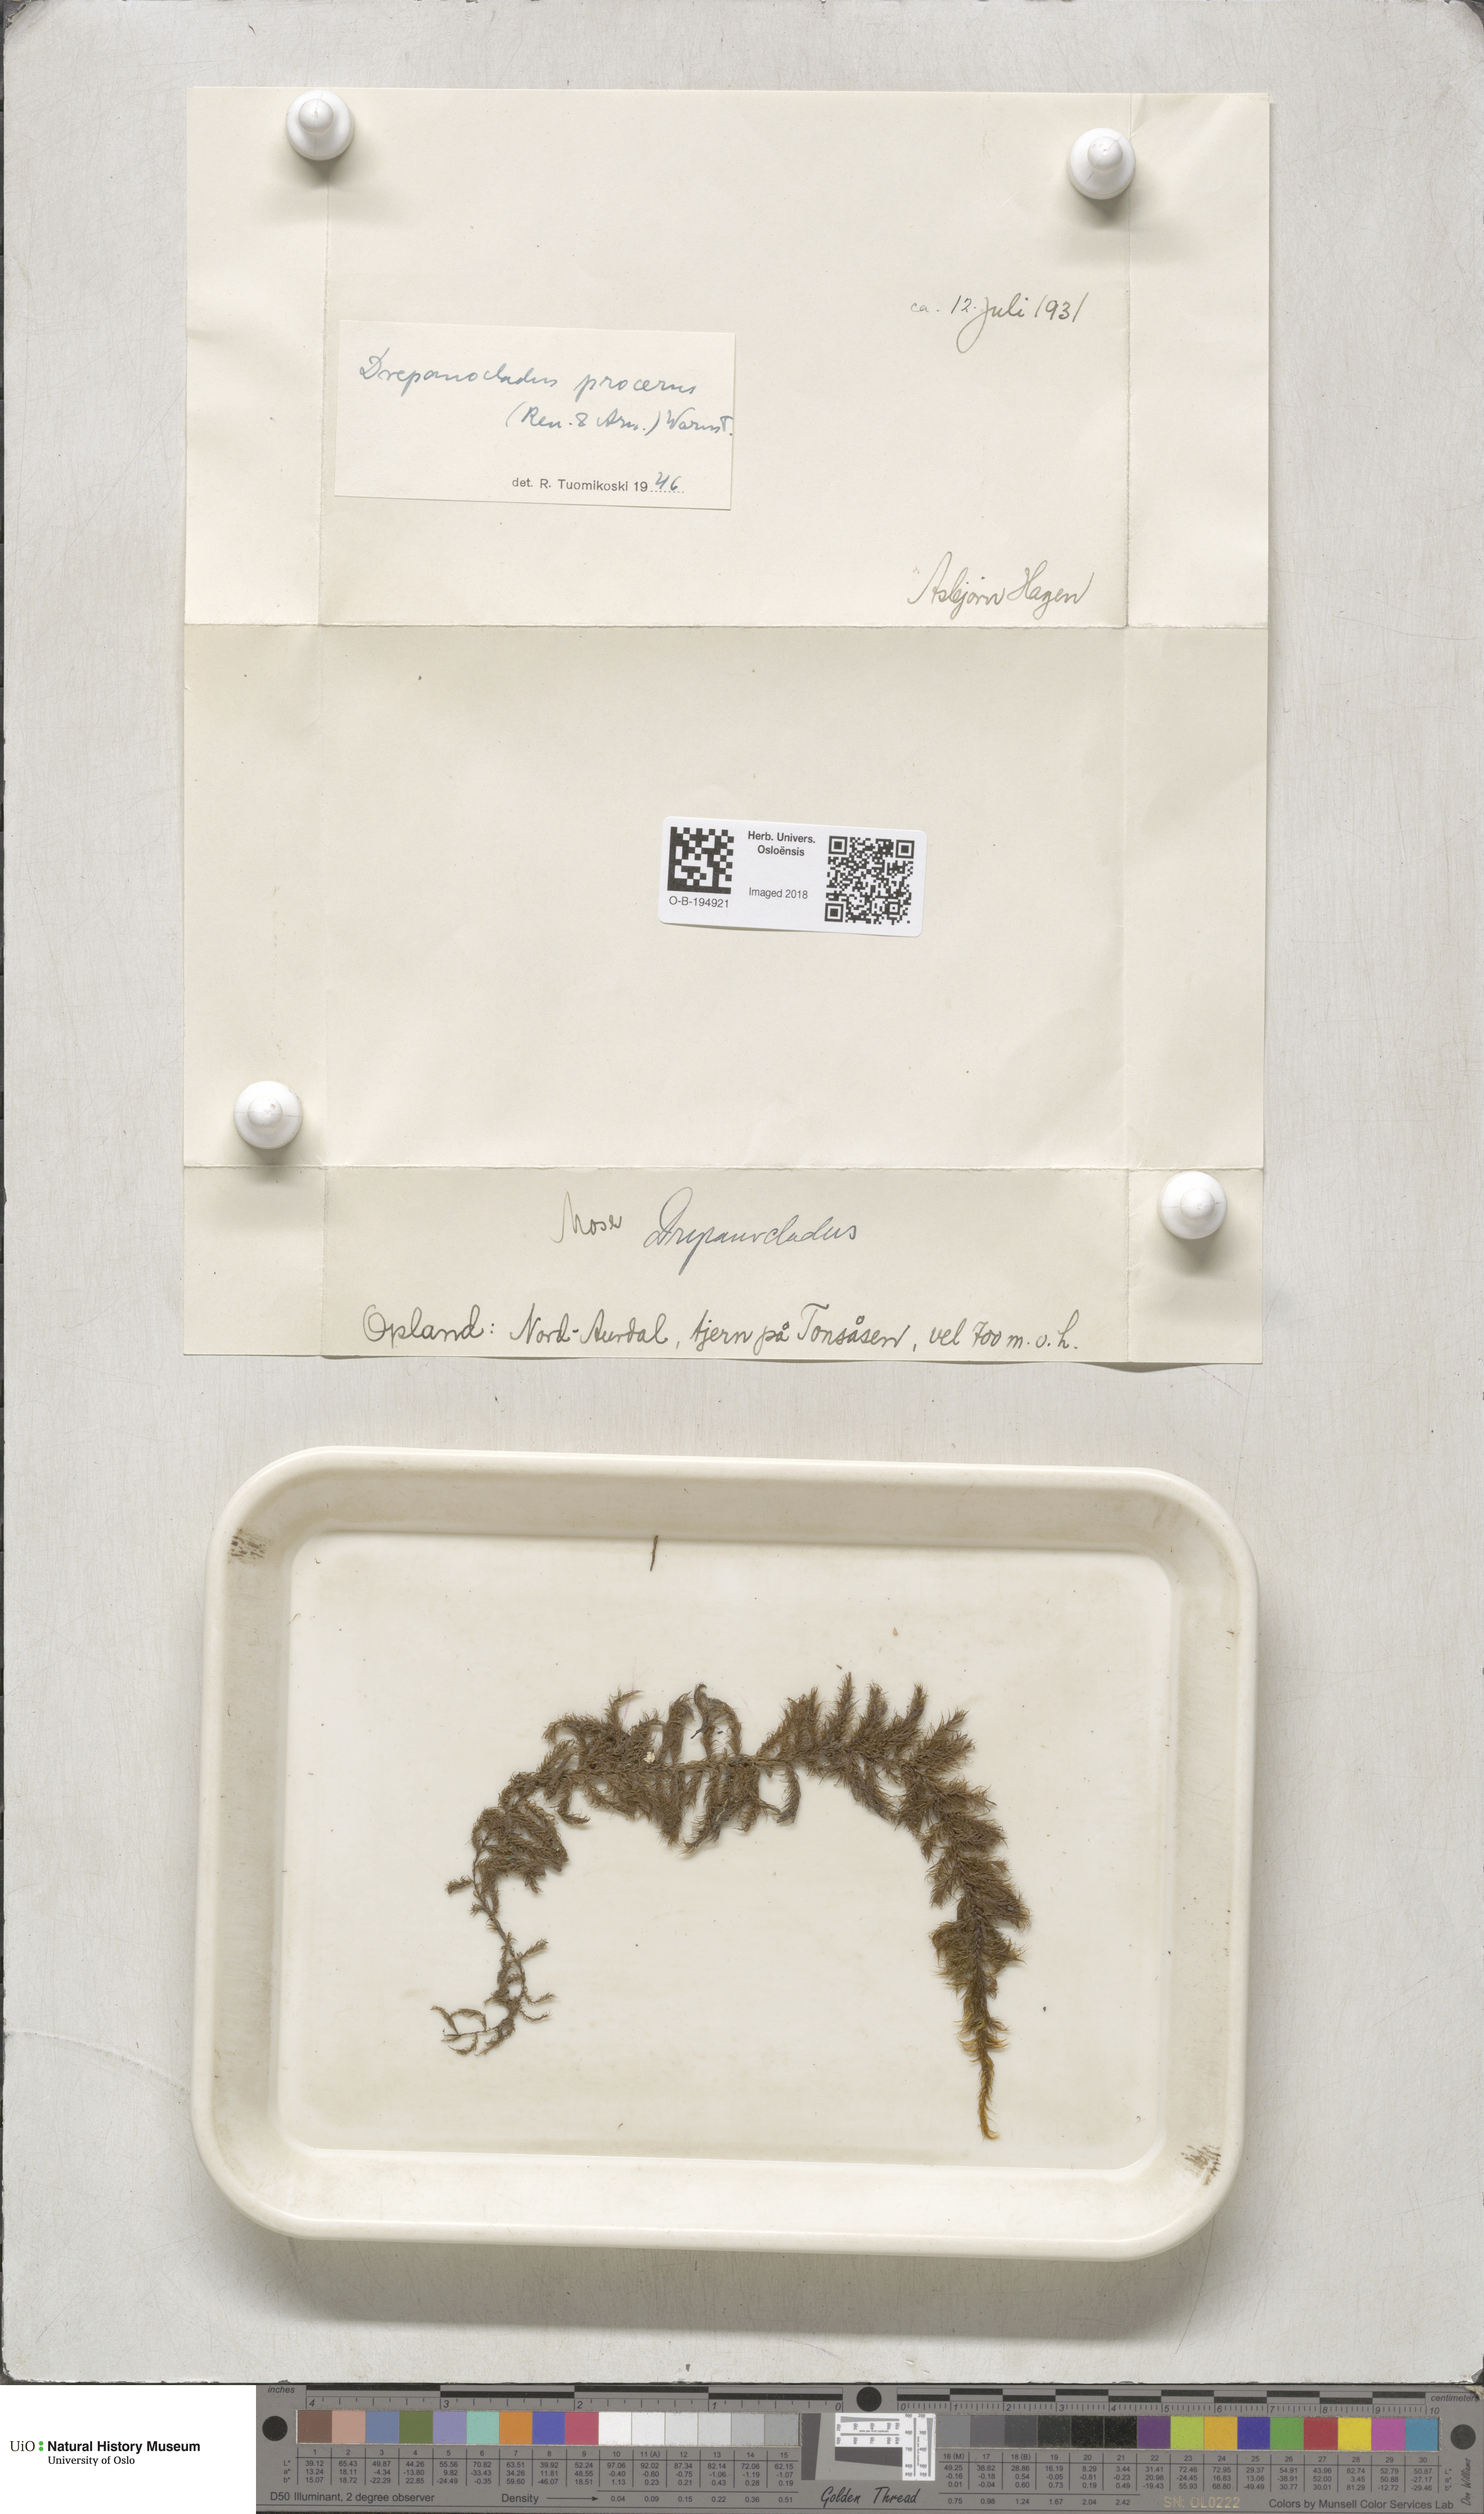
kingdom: Plantae
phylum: Bryophyta
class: Bryopsida
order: Hypnales
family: Calliergonaceae
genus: Sarmentypnum
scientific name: Sarmentypnum exannulatum
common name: Ringless spoon moss
